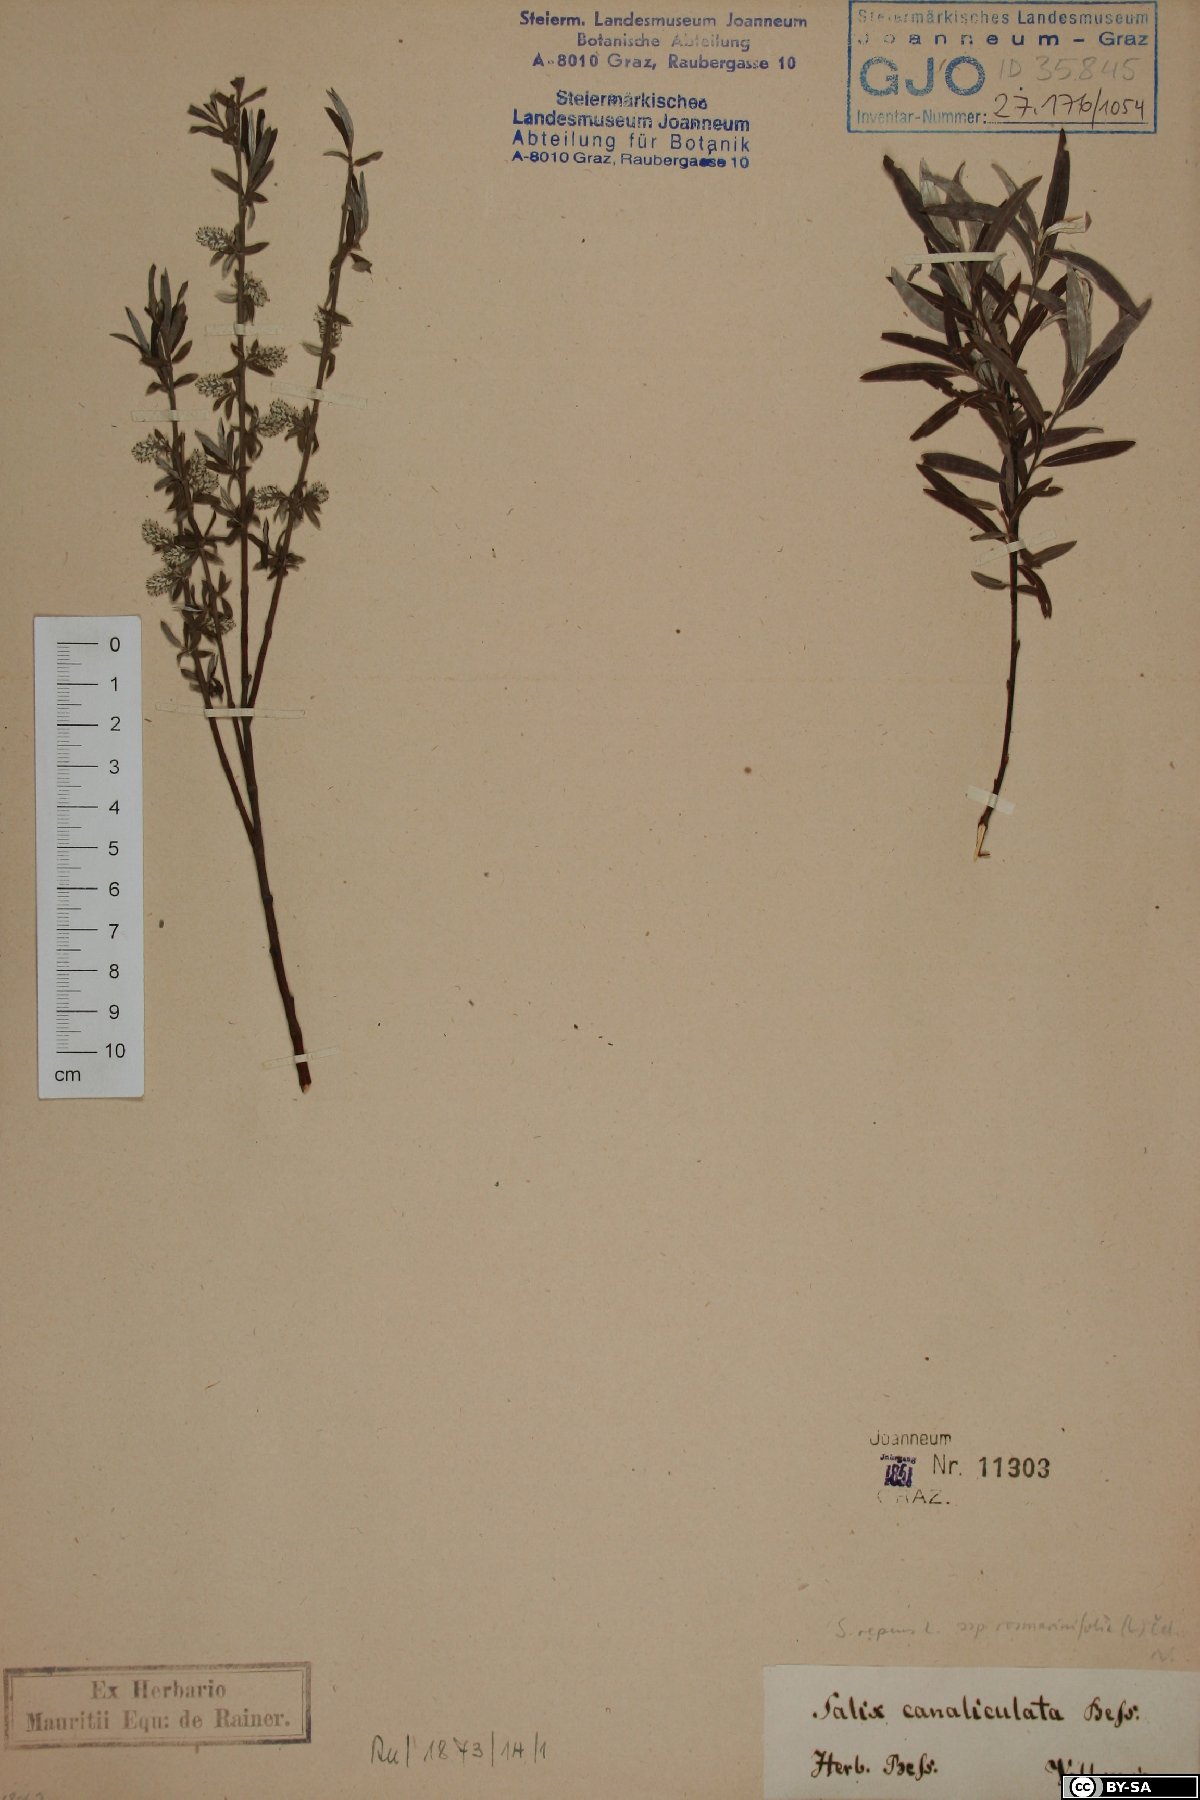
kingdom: Plantae
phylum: Tracheophyta
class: Magnoliopsida
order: Malpighiales
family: Salicaceae
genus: Salix
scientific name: Salix repens
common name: Creeping willow
